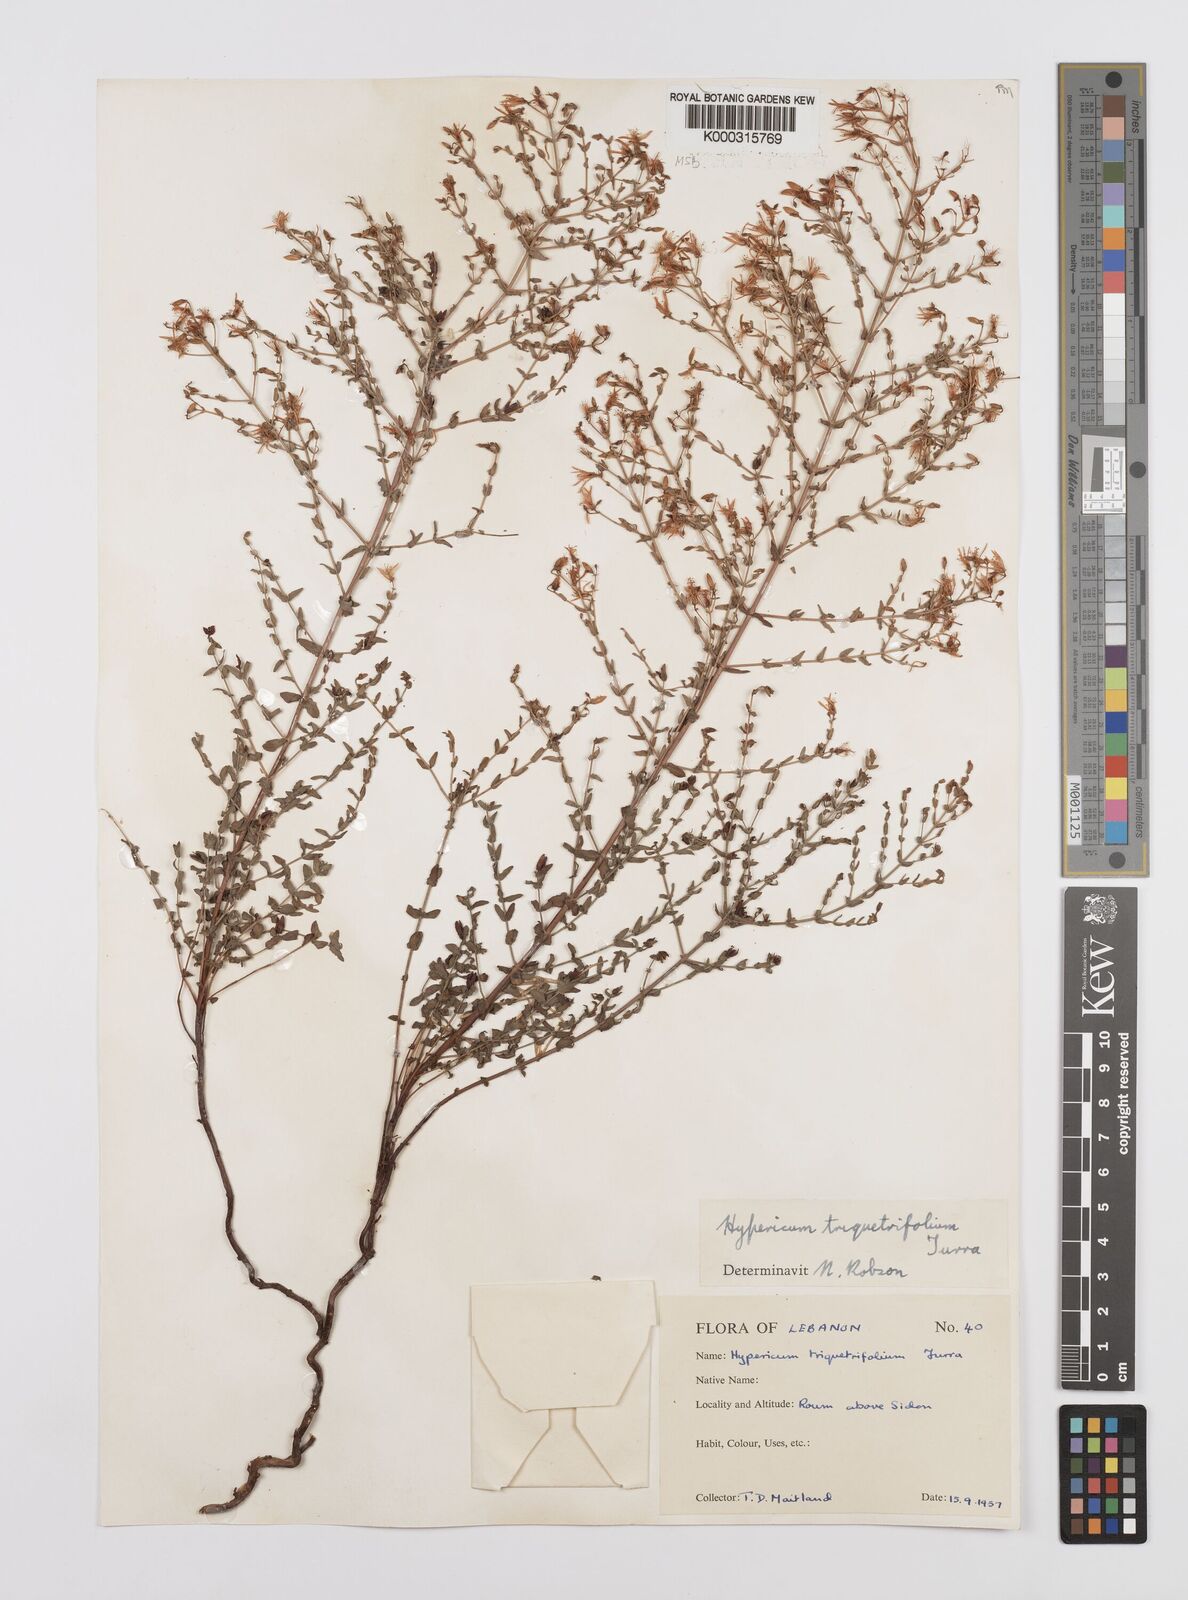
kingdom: Plantae
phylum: Tracheophyta
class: Magnoliopsida
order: Malpighiales
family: Hypericaceae
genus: Hypericum
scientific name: Hypericum triquetrifolium
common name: Tangled hypericum
